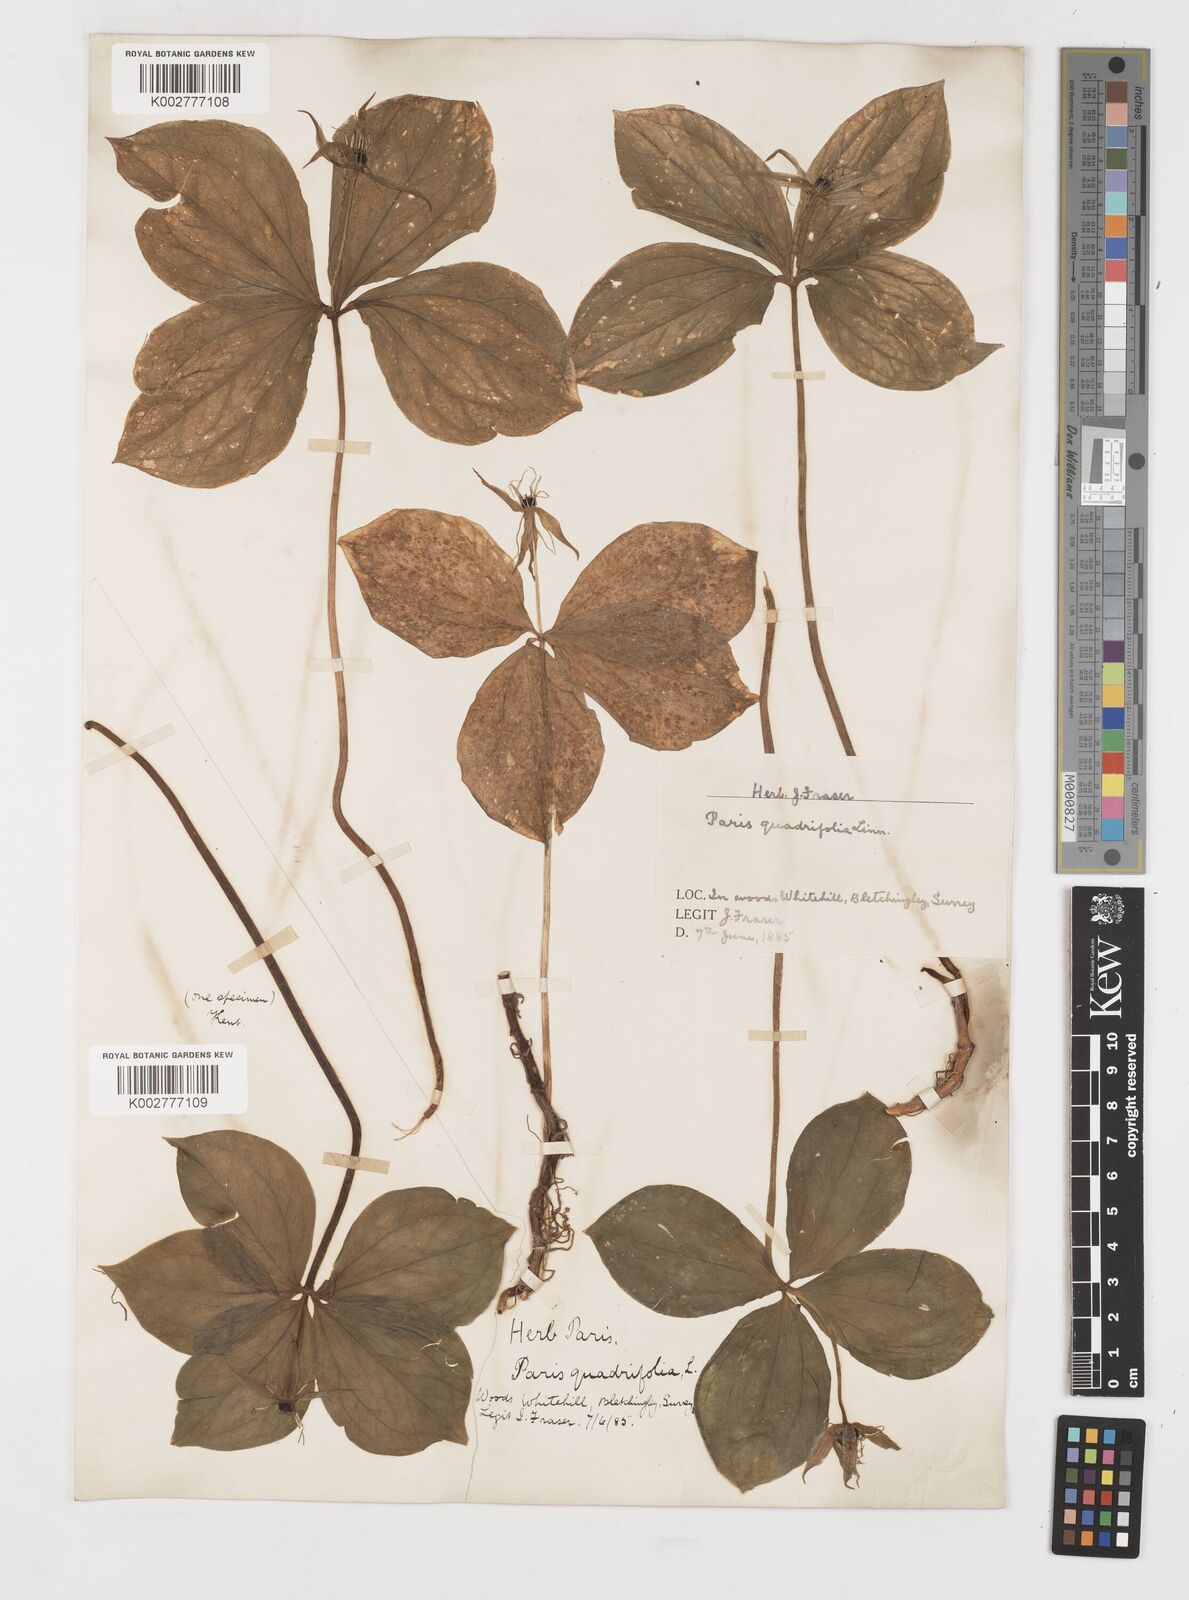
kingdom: Plantae
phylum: Tracheophyta
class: Liliopsida
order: Liliales
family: Melanthiaceae
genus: Paris
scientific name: Paris quadrifolia
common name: Herb-paris
